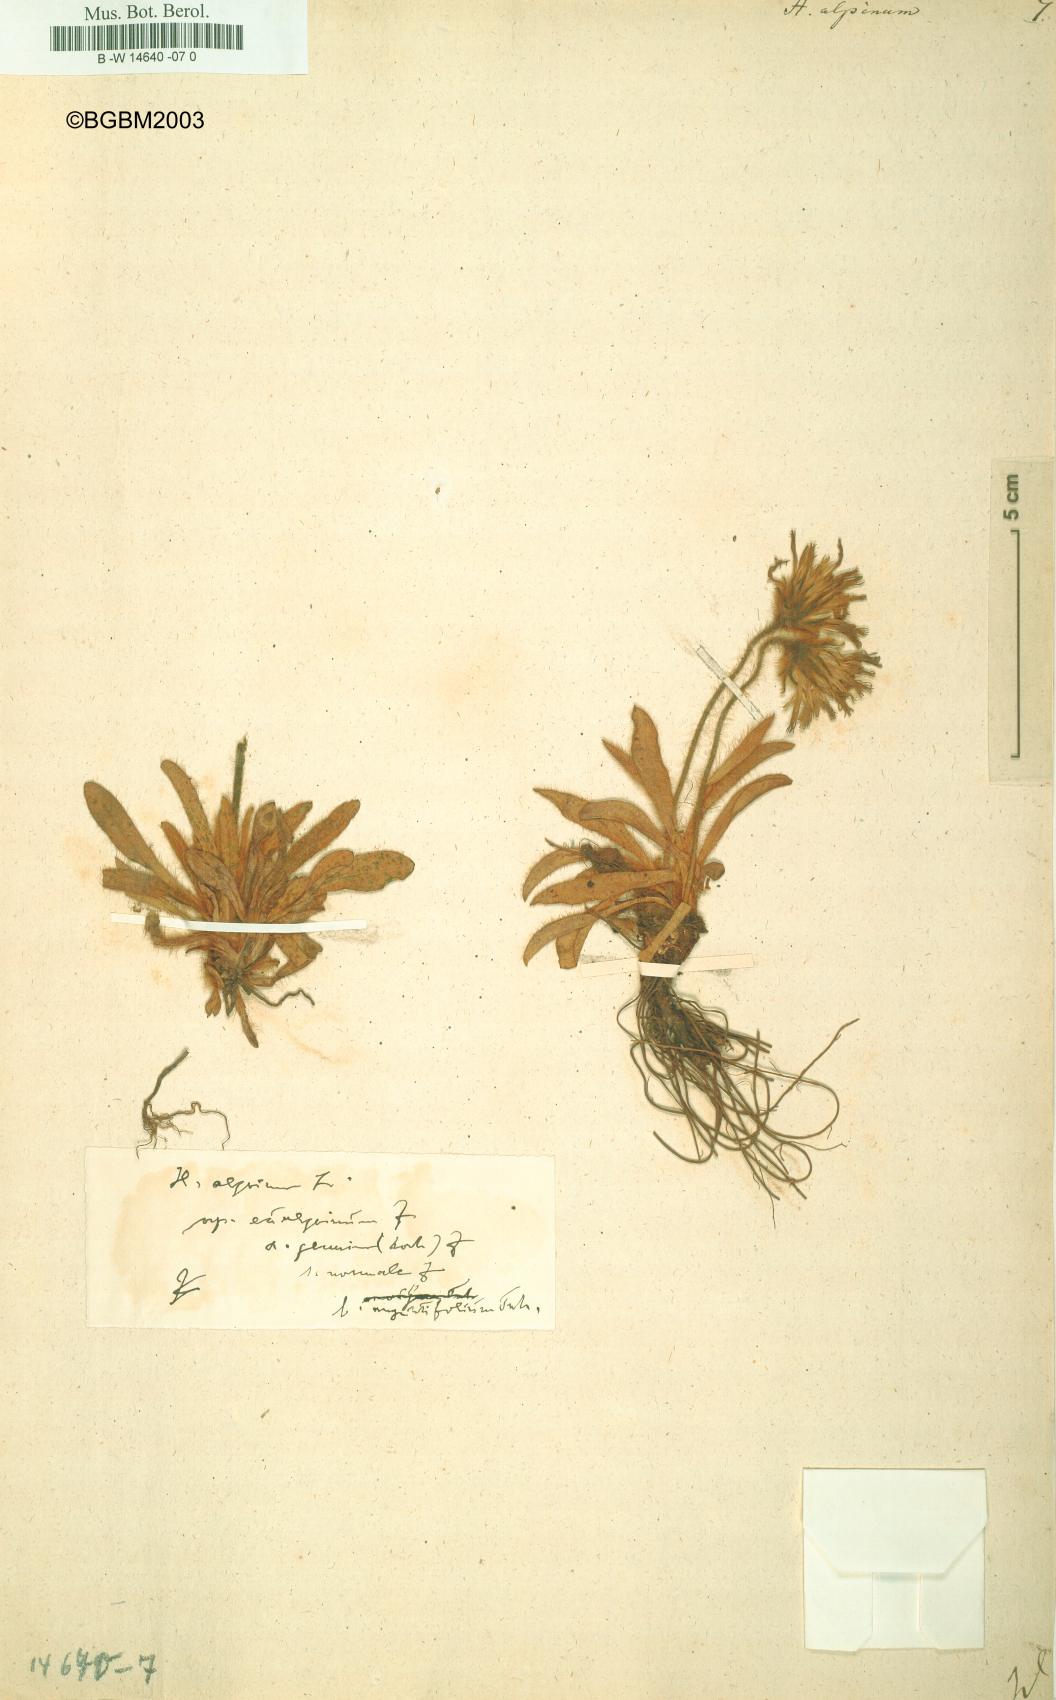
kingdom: Plantae
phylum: Tracheophyta
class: Magnoliopsida
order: Asterales
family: Asteraceae
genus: Hieracium
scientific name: Hieracium alpinum
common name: Alpine hawkweed
